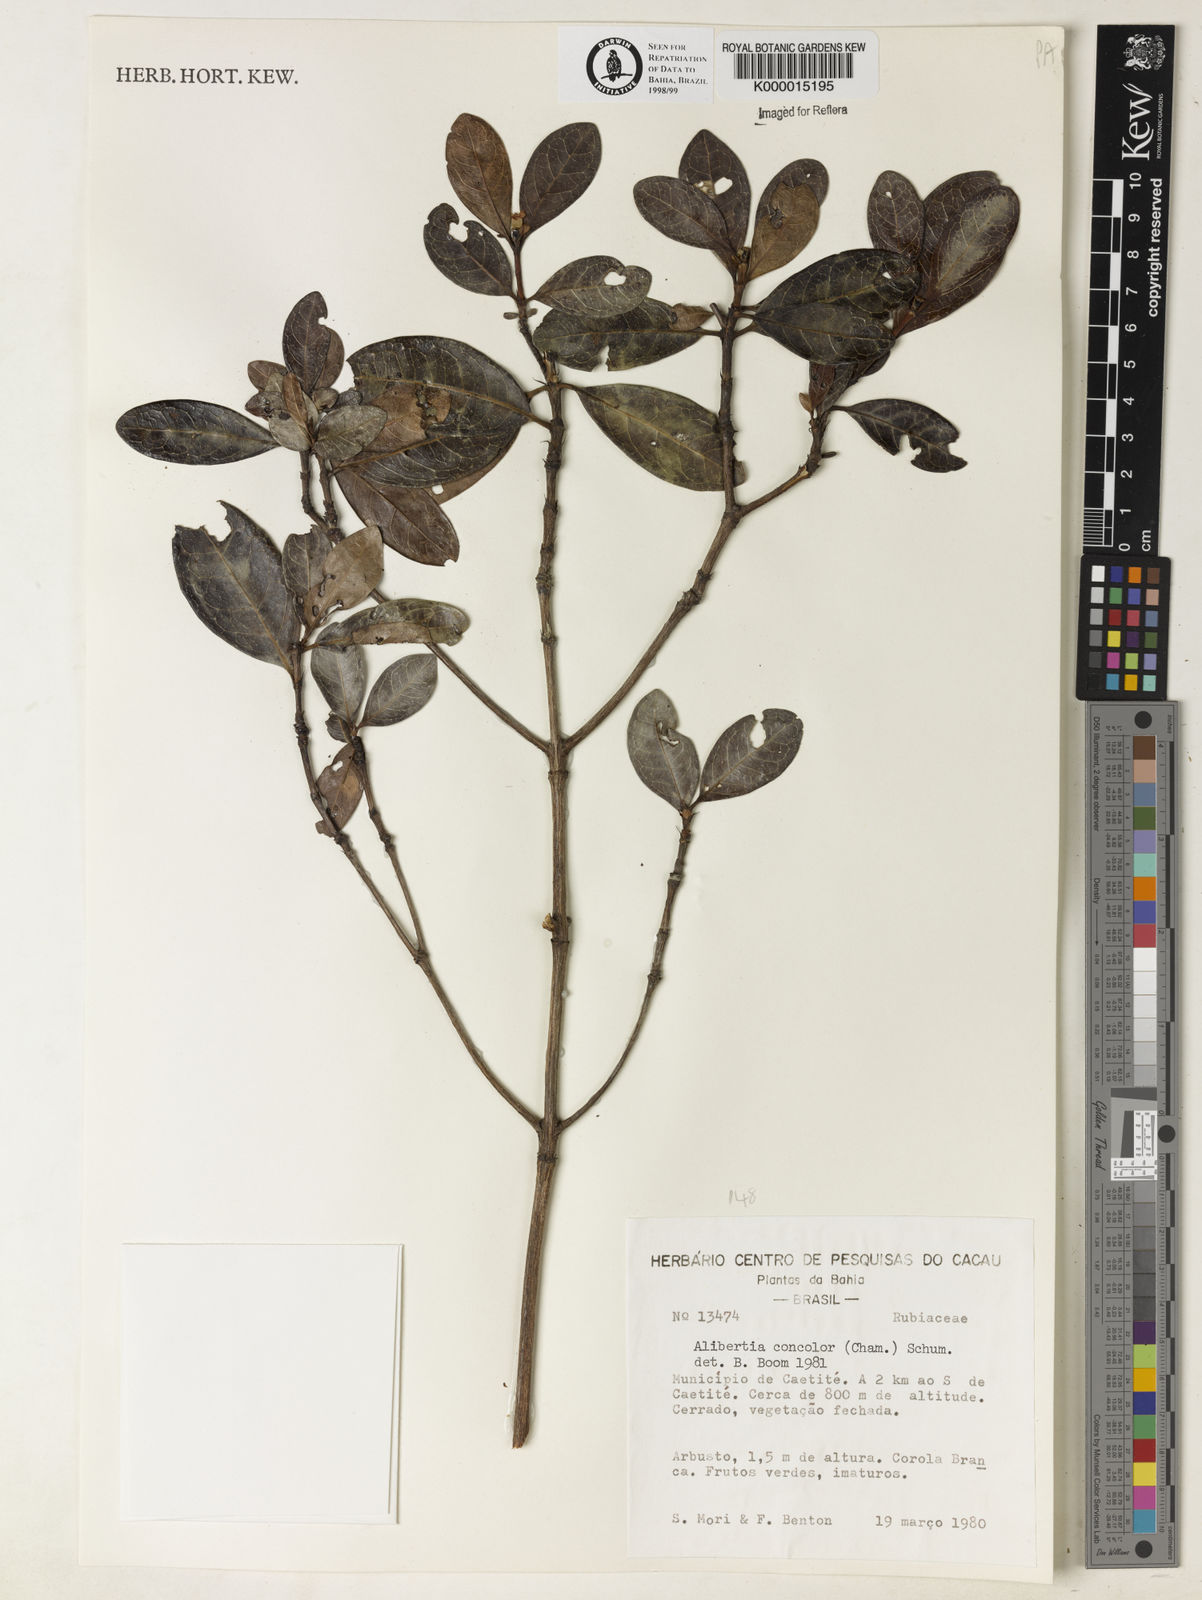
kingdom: Plantae
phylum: Tracheophyta
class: Magnoliopsida
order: Gentianales
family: Rubiaceae
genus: Cordiera
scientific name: Cordiera concolor
